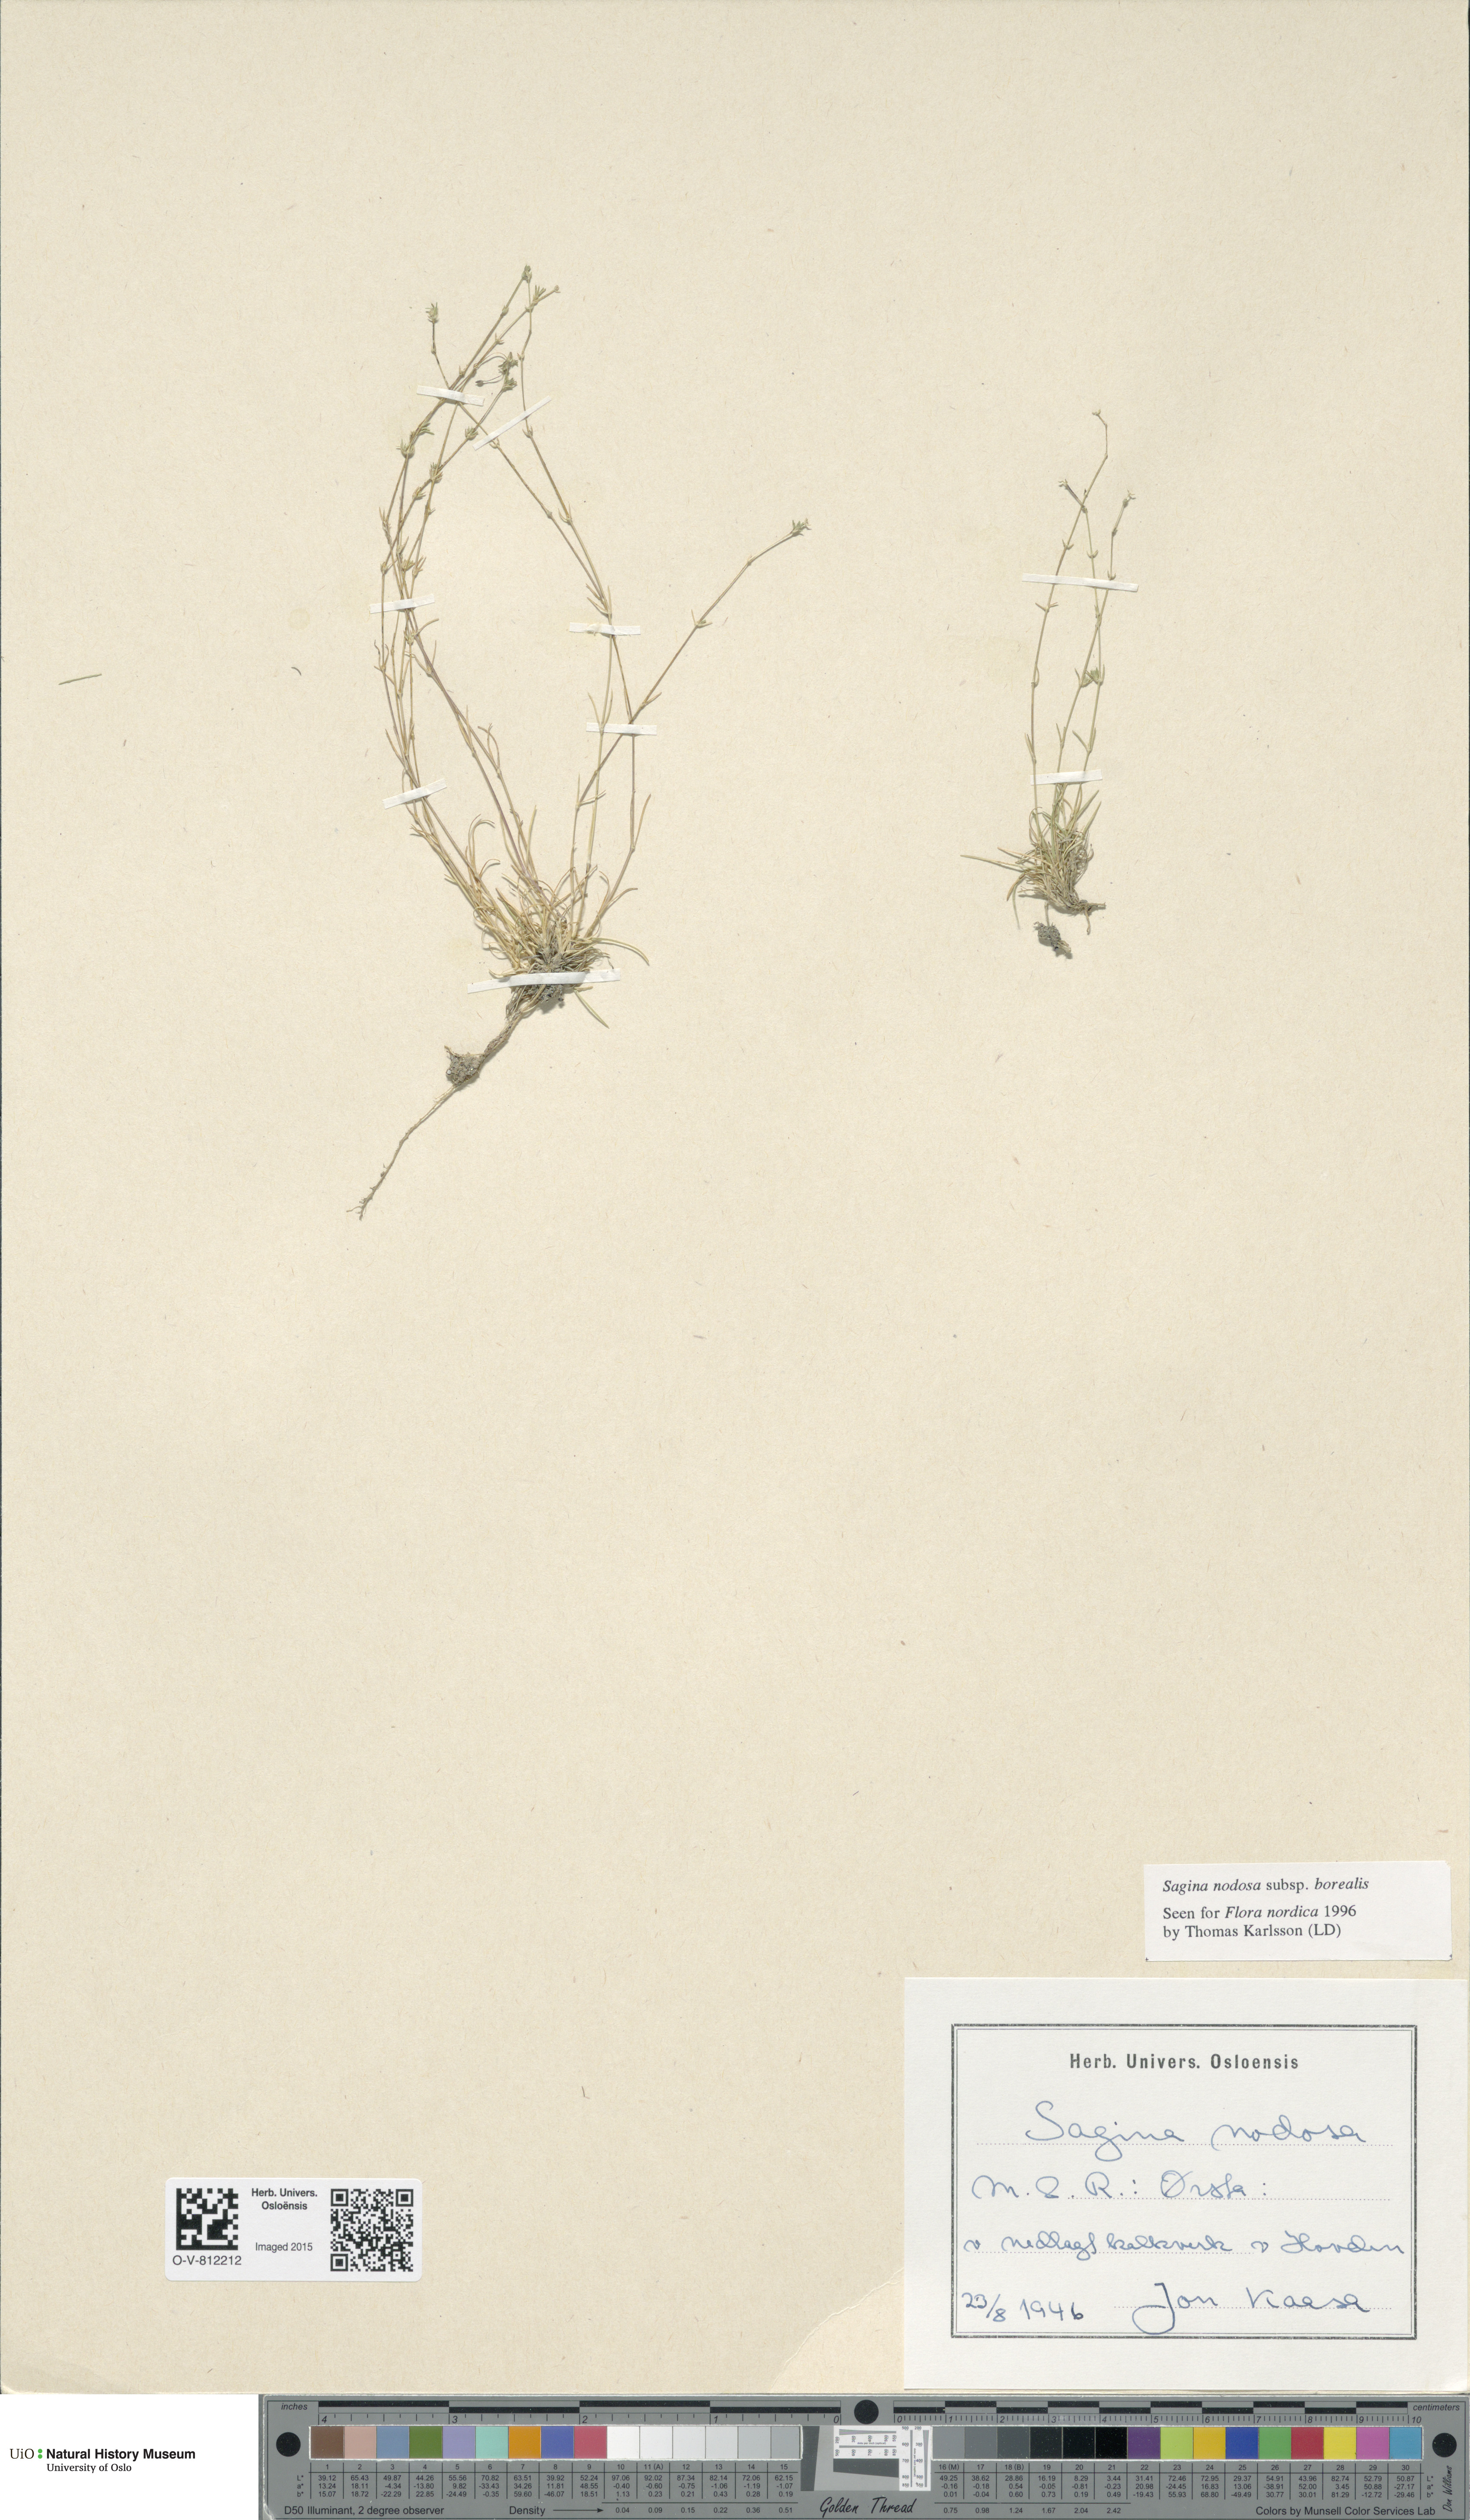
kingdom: Plantae
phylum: Tracheophyta
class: Magnoliopsida
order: Caryophyllales
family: Caryophyllaceae
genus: Sagina
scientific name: Sagina nodosa
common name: Knotted pearlwort
